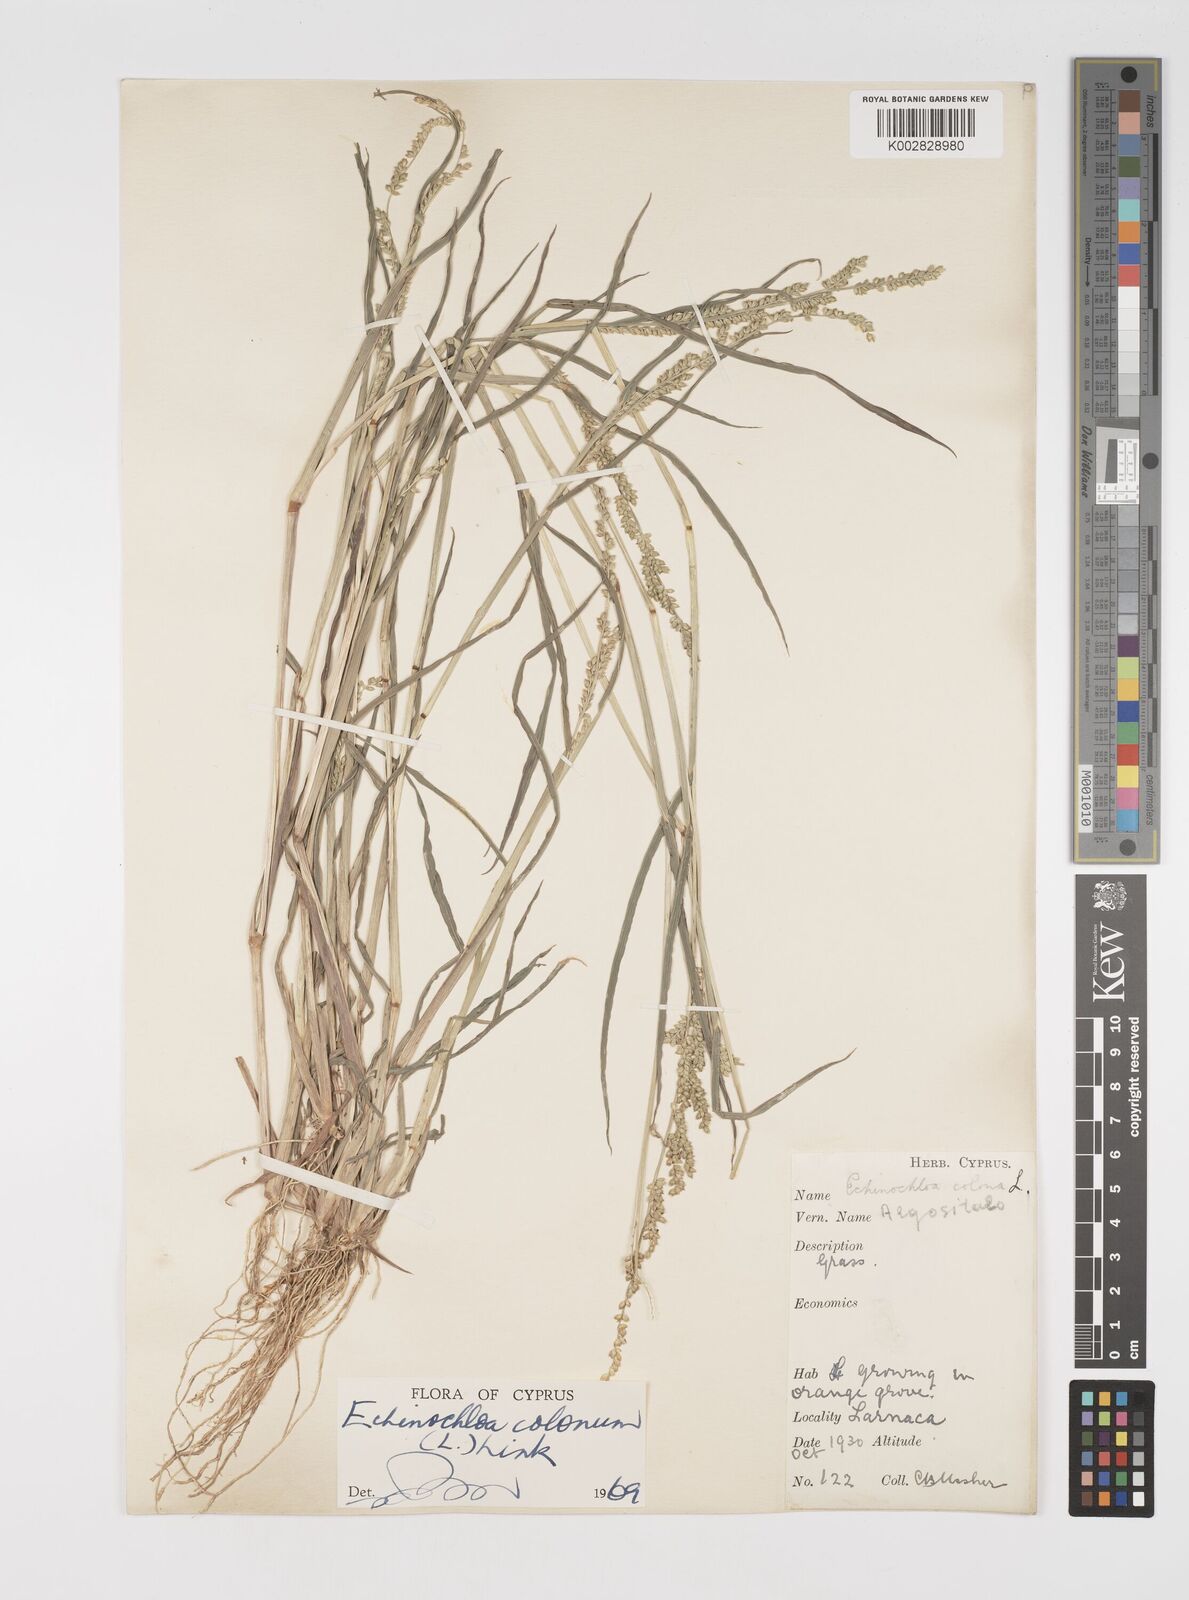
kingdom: Plantae
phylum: Tracheophyta
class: Liliopsida
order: Poales
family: Poaceae
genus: Echinochloa
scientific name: Echinochloa colonum
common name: Jungle rice
